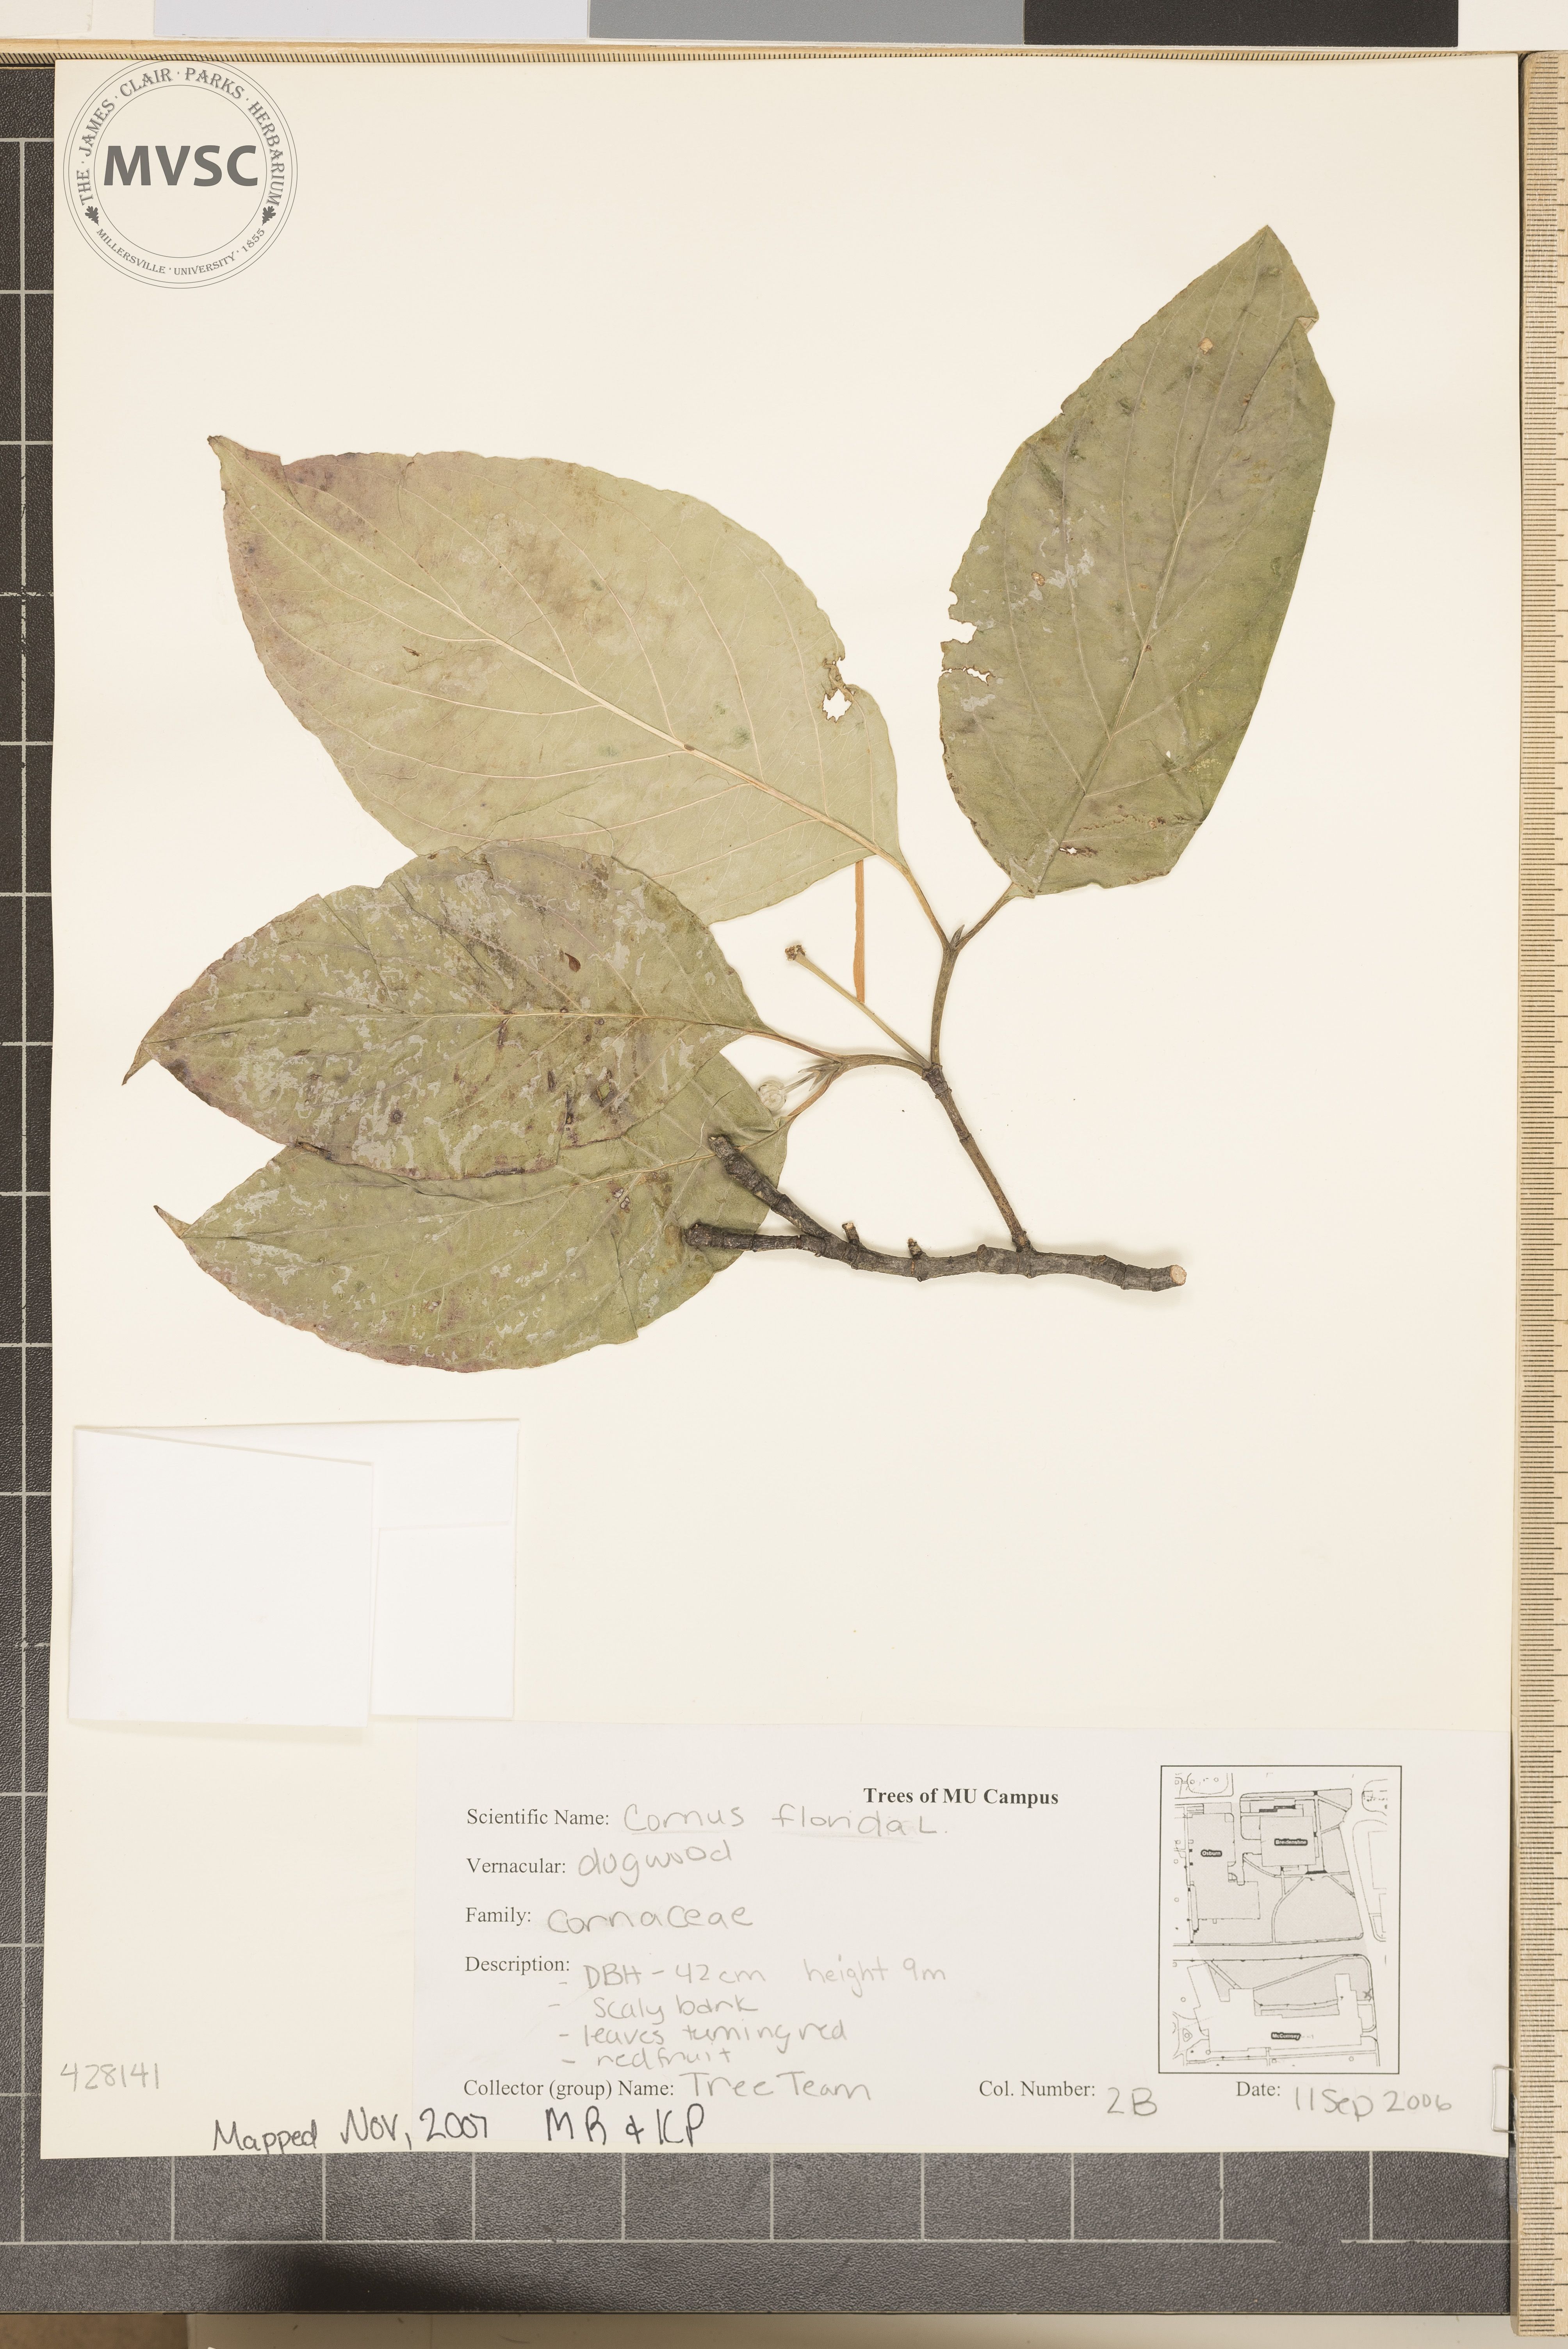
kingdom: Plantae
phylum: Tracheophyta
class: Magnoliopsida
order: Cornales
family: Cornaceae
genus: Cornus
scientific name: Cornus florida
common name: Flowering Dogwood
